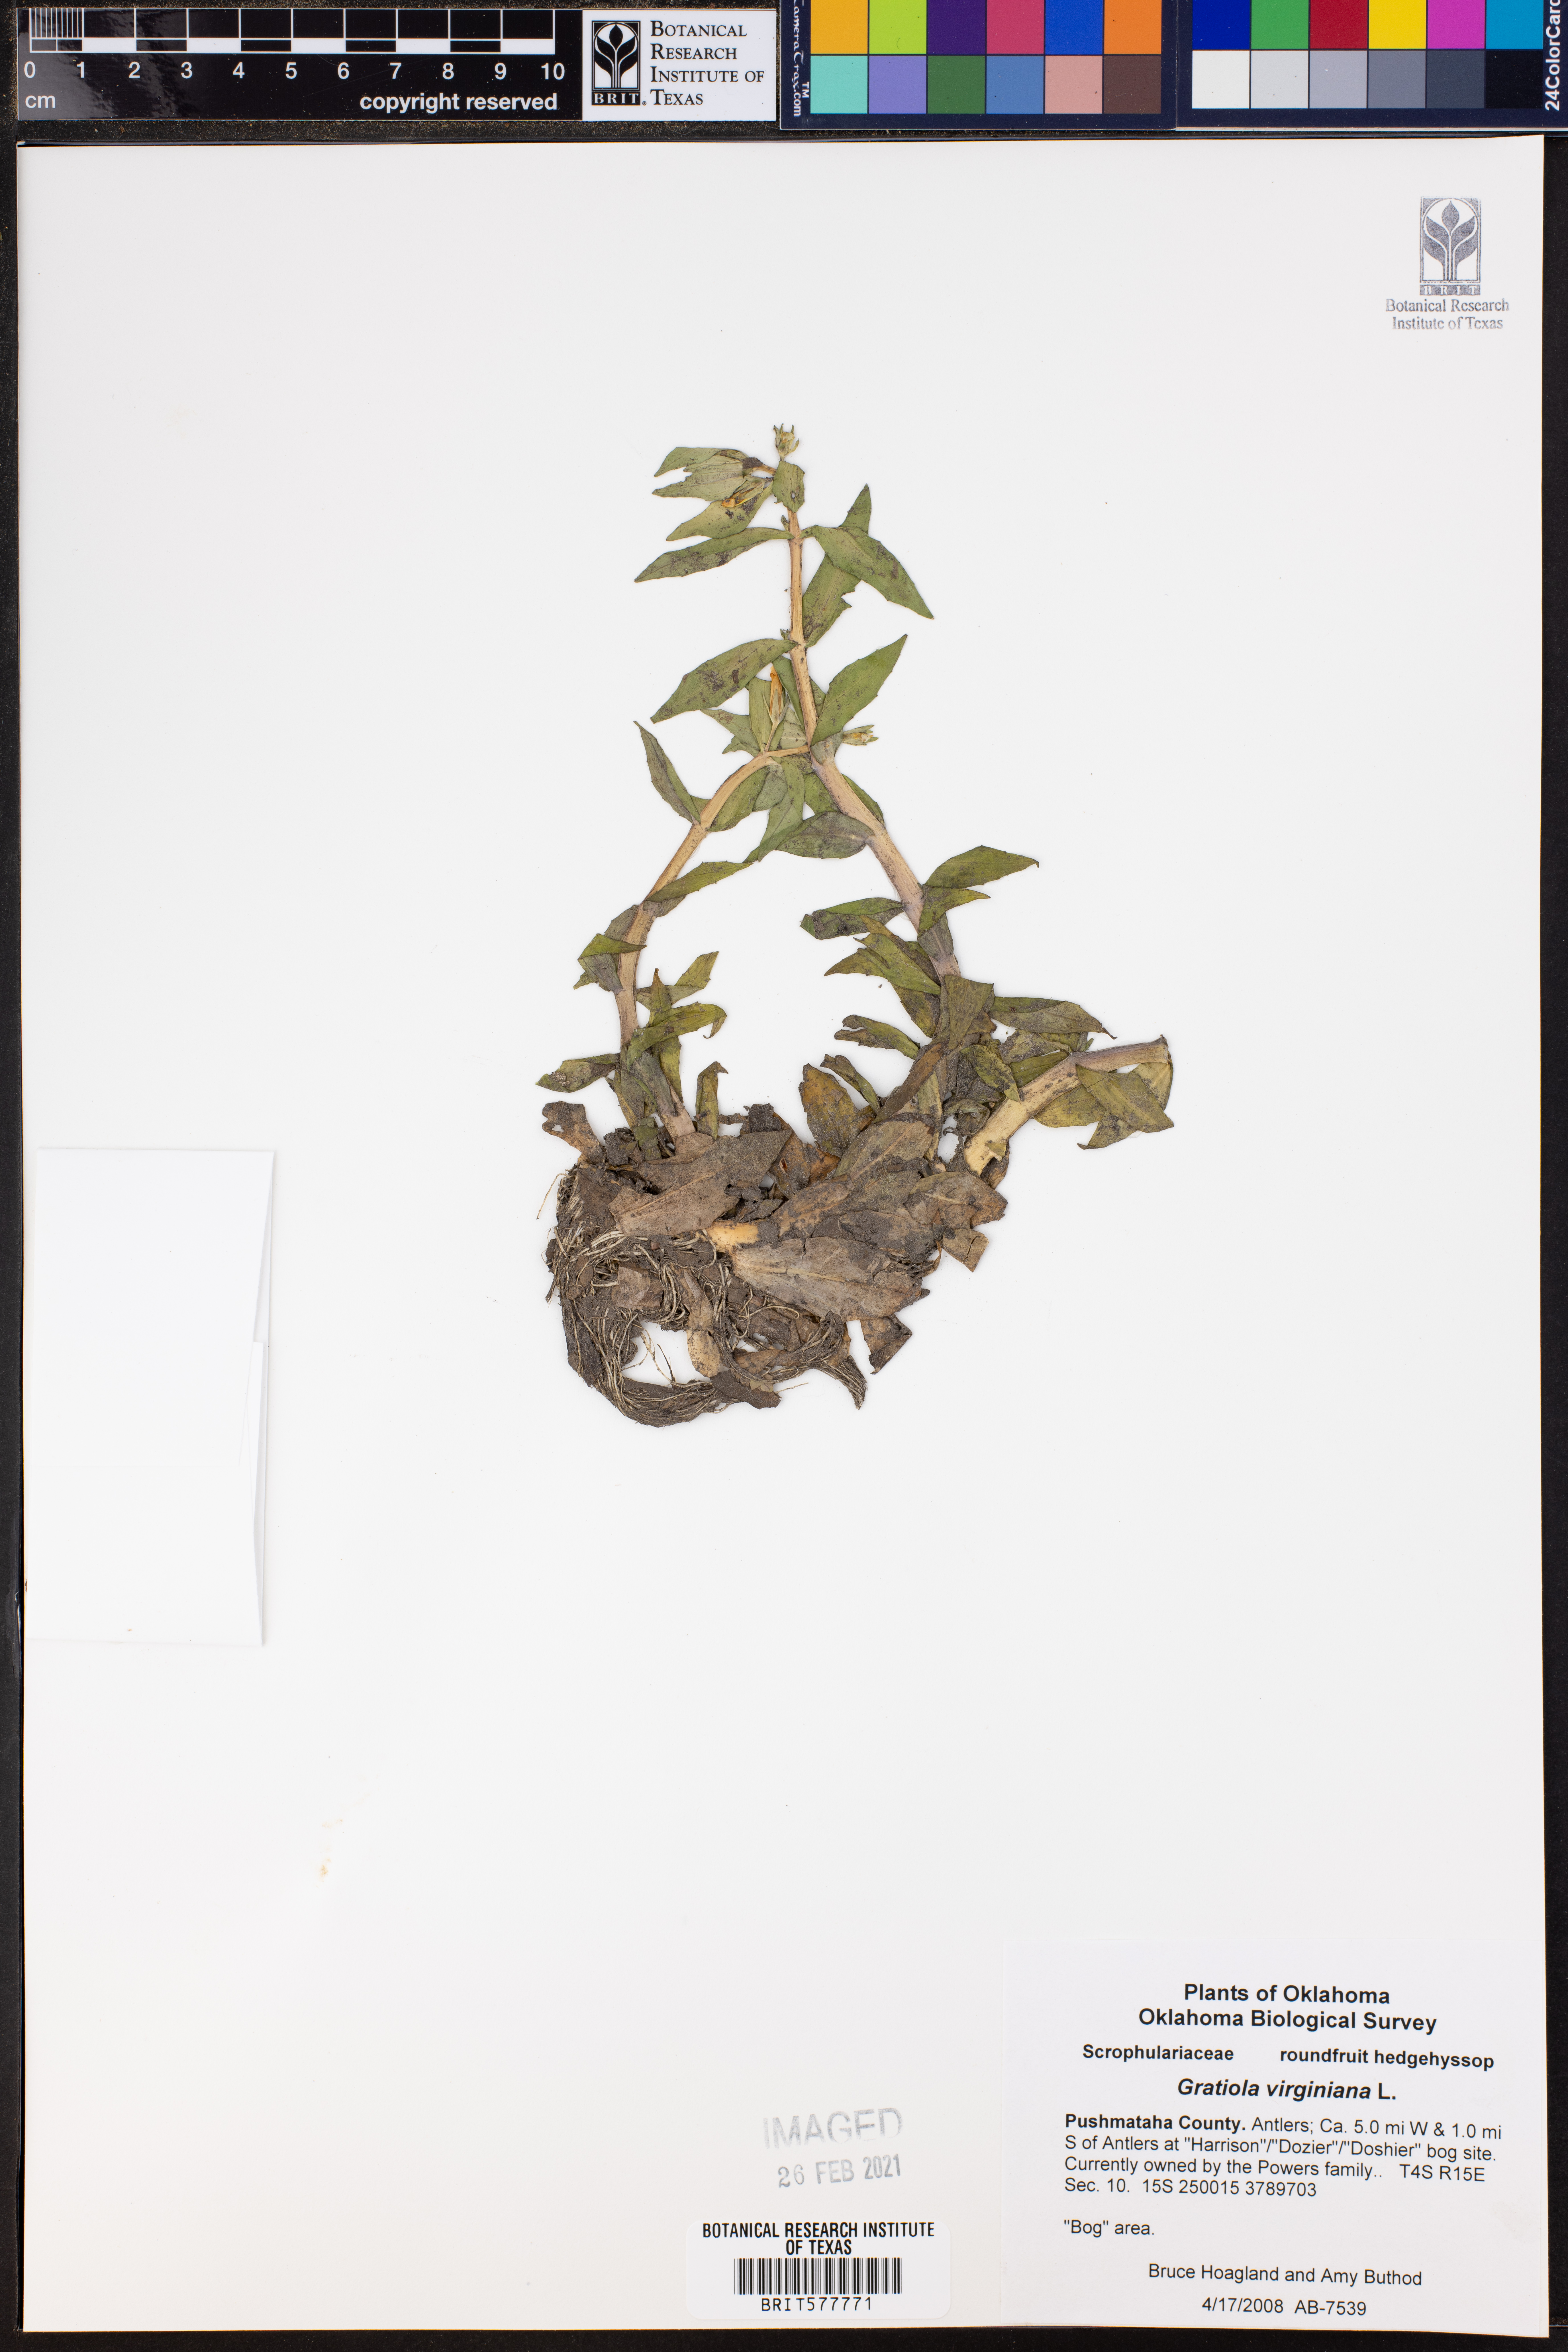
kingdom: Plantae
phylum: Tracheophyta
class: Magnoliopsida
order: Lamiales
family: Plantaginaceae
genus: Gratiola
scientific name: Gratiola virginiana
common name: Roundfruit hedgehyssop
